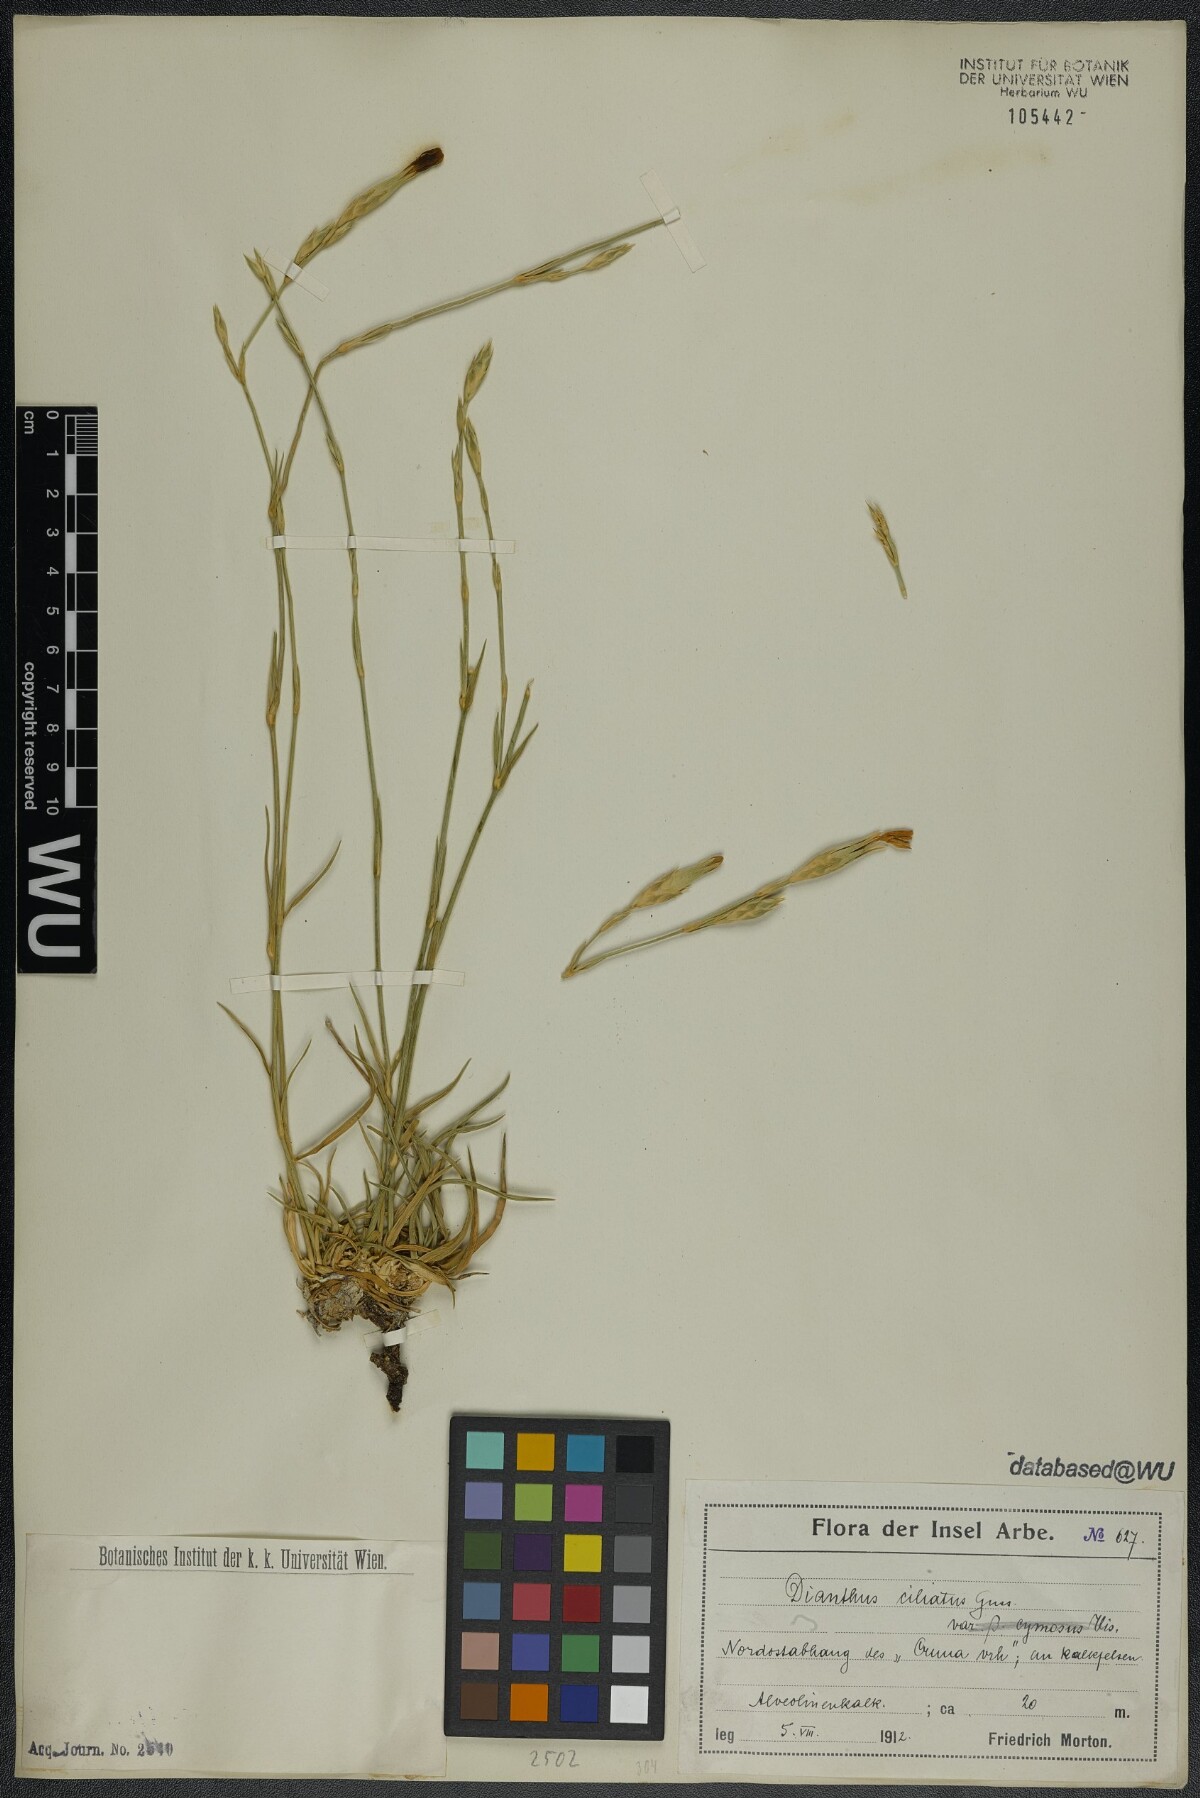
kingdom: Plantae
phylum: Tracheophyta
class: Magnoliopsida
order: Caryophyllales
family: Caryophyllaceae
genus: Dianthus
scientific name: Dianthus ciliatus
